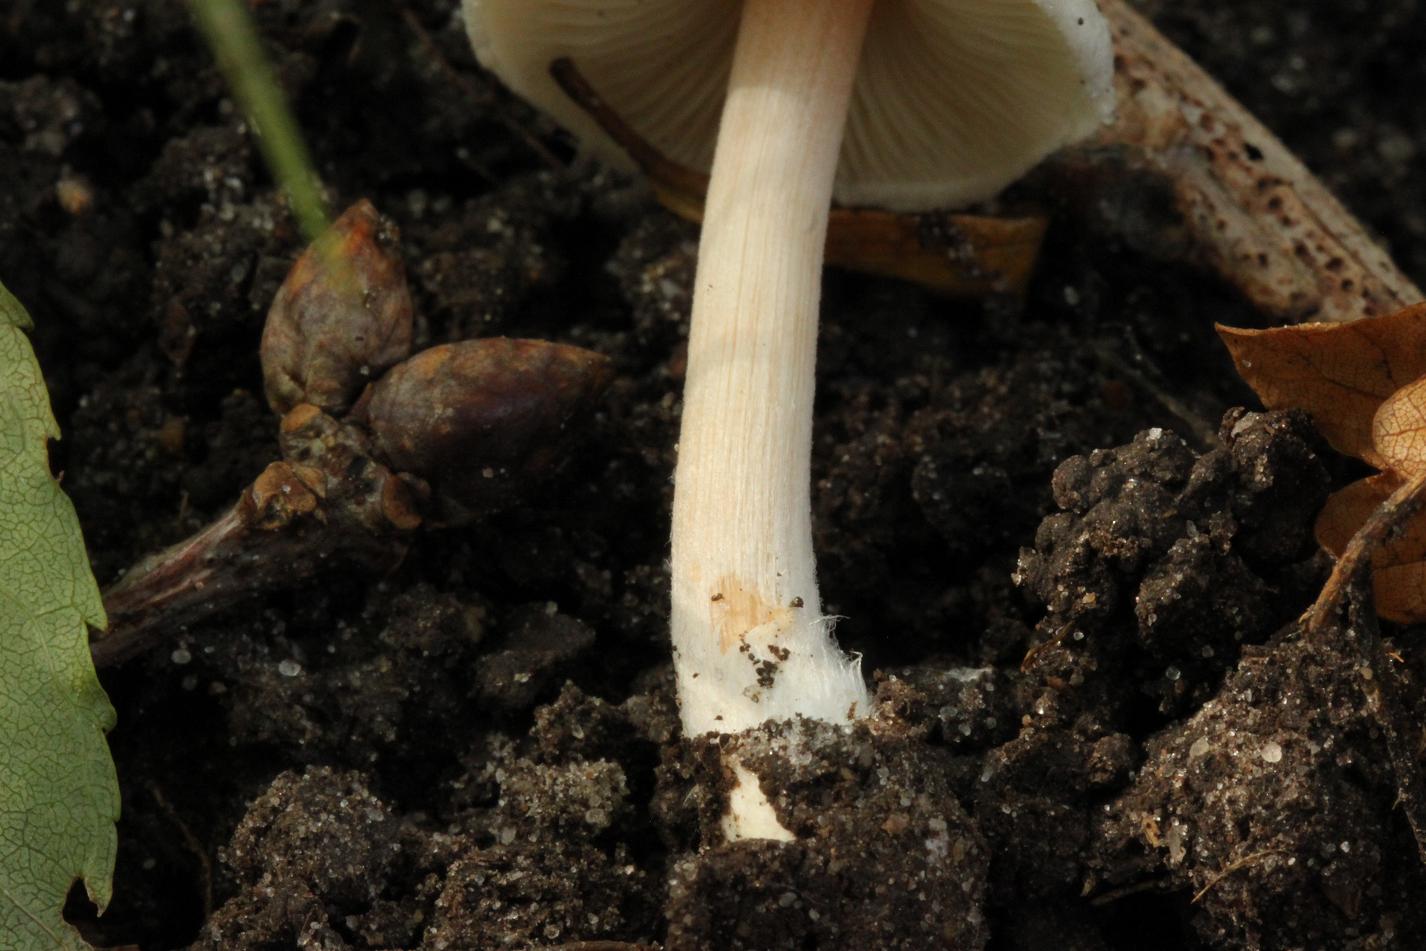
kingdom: Fungi
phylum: Basidiomycota
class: Agaricomycetes
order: Agaricales
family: Inocybaceae
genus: Inocybe
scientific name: Inocybe sindonia
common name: bleg trævlhat
